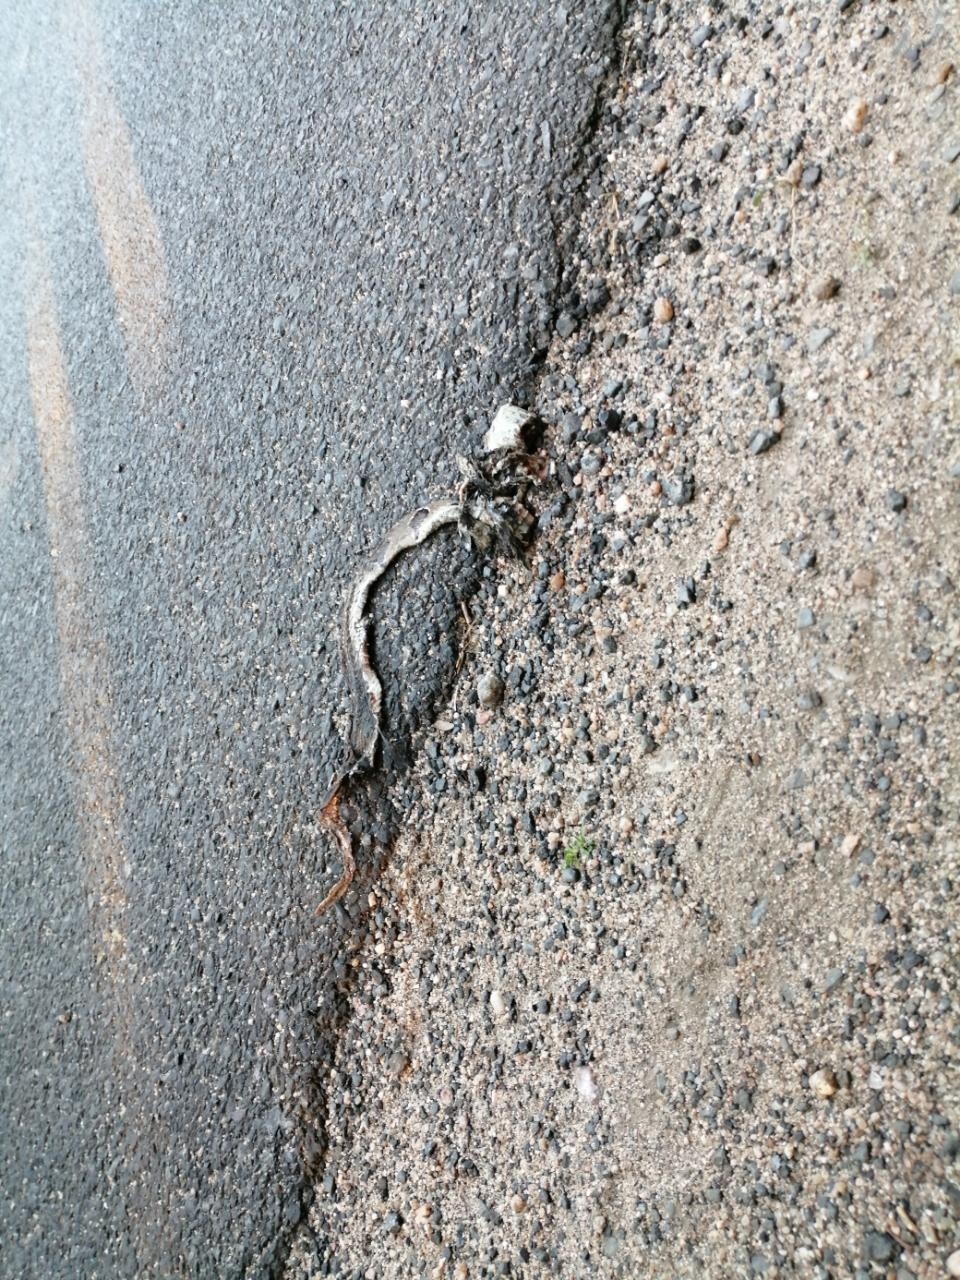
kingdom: Animalia
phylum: Chordata
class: Squamata
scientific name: Squamata
